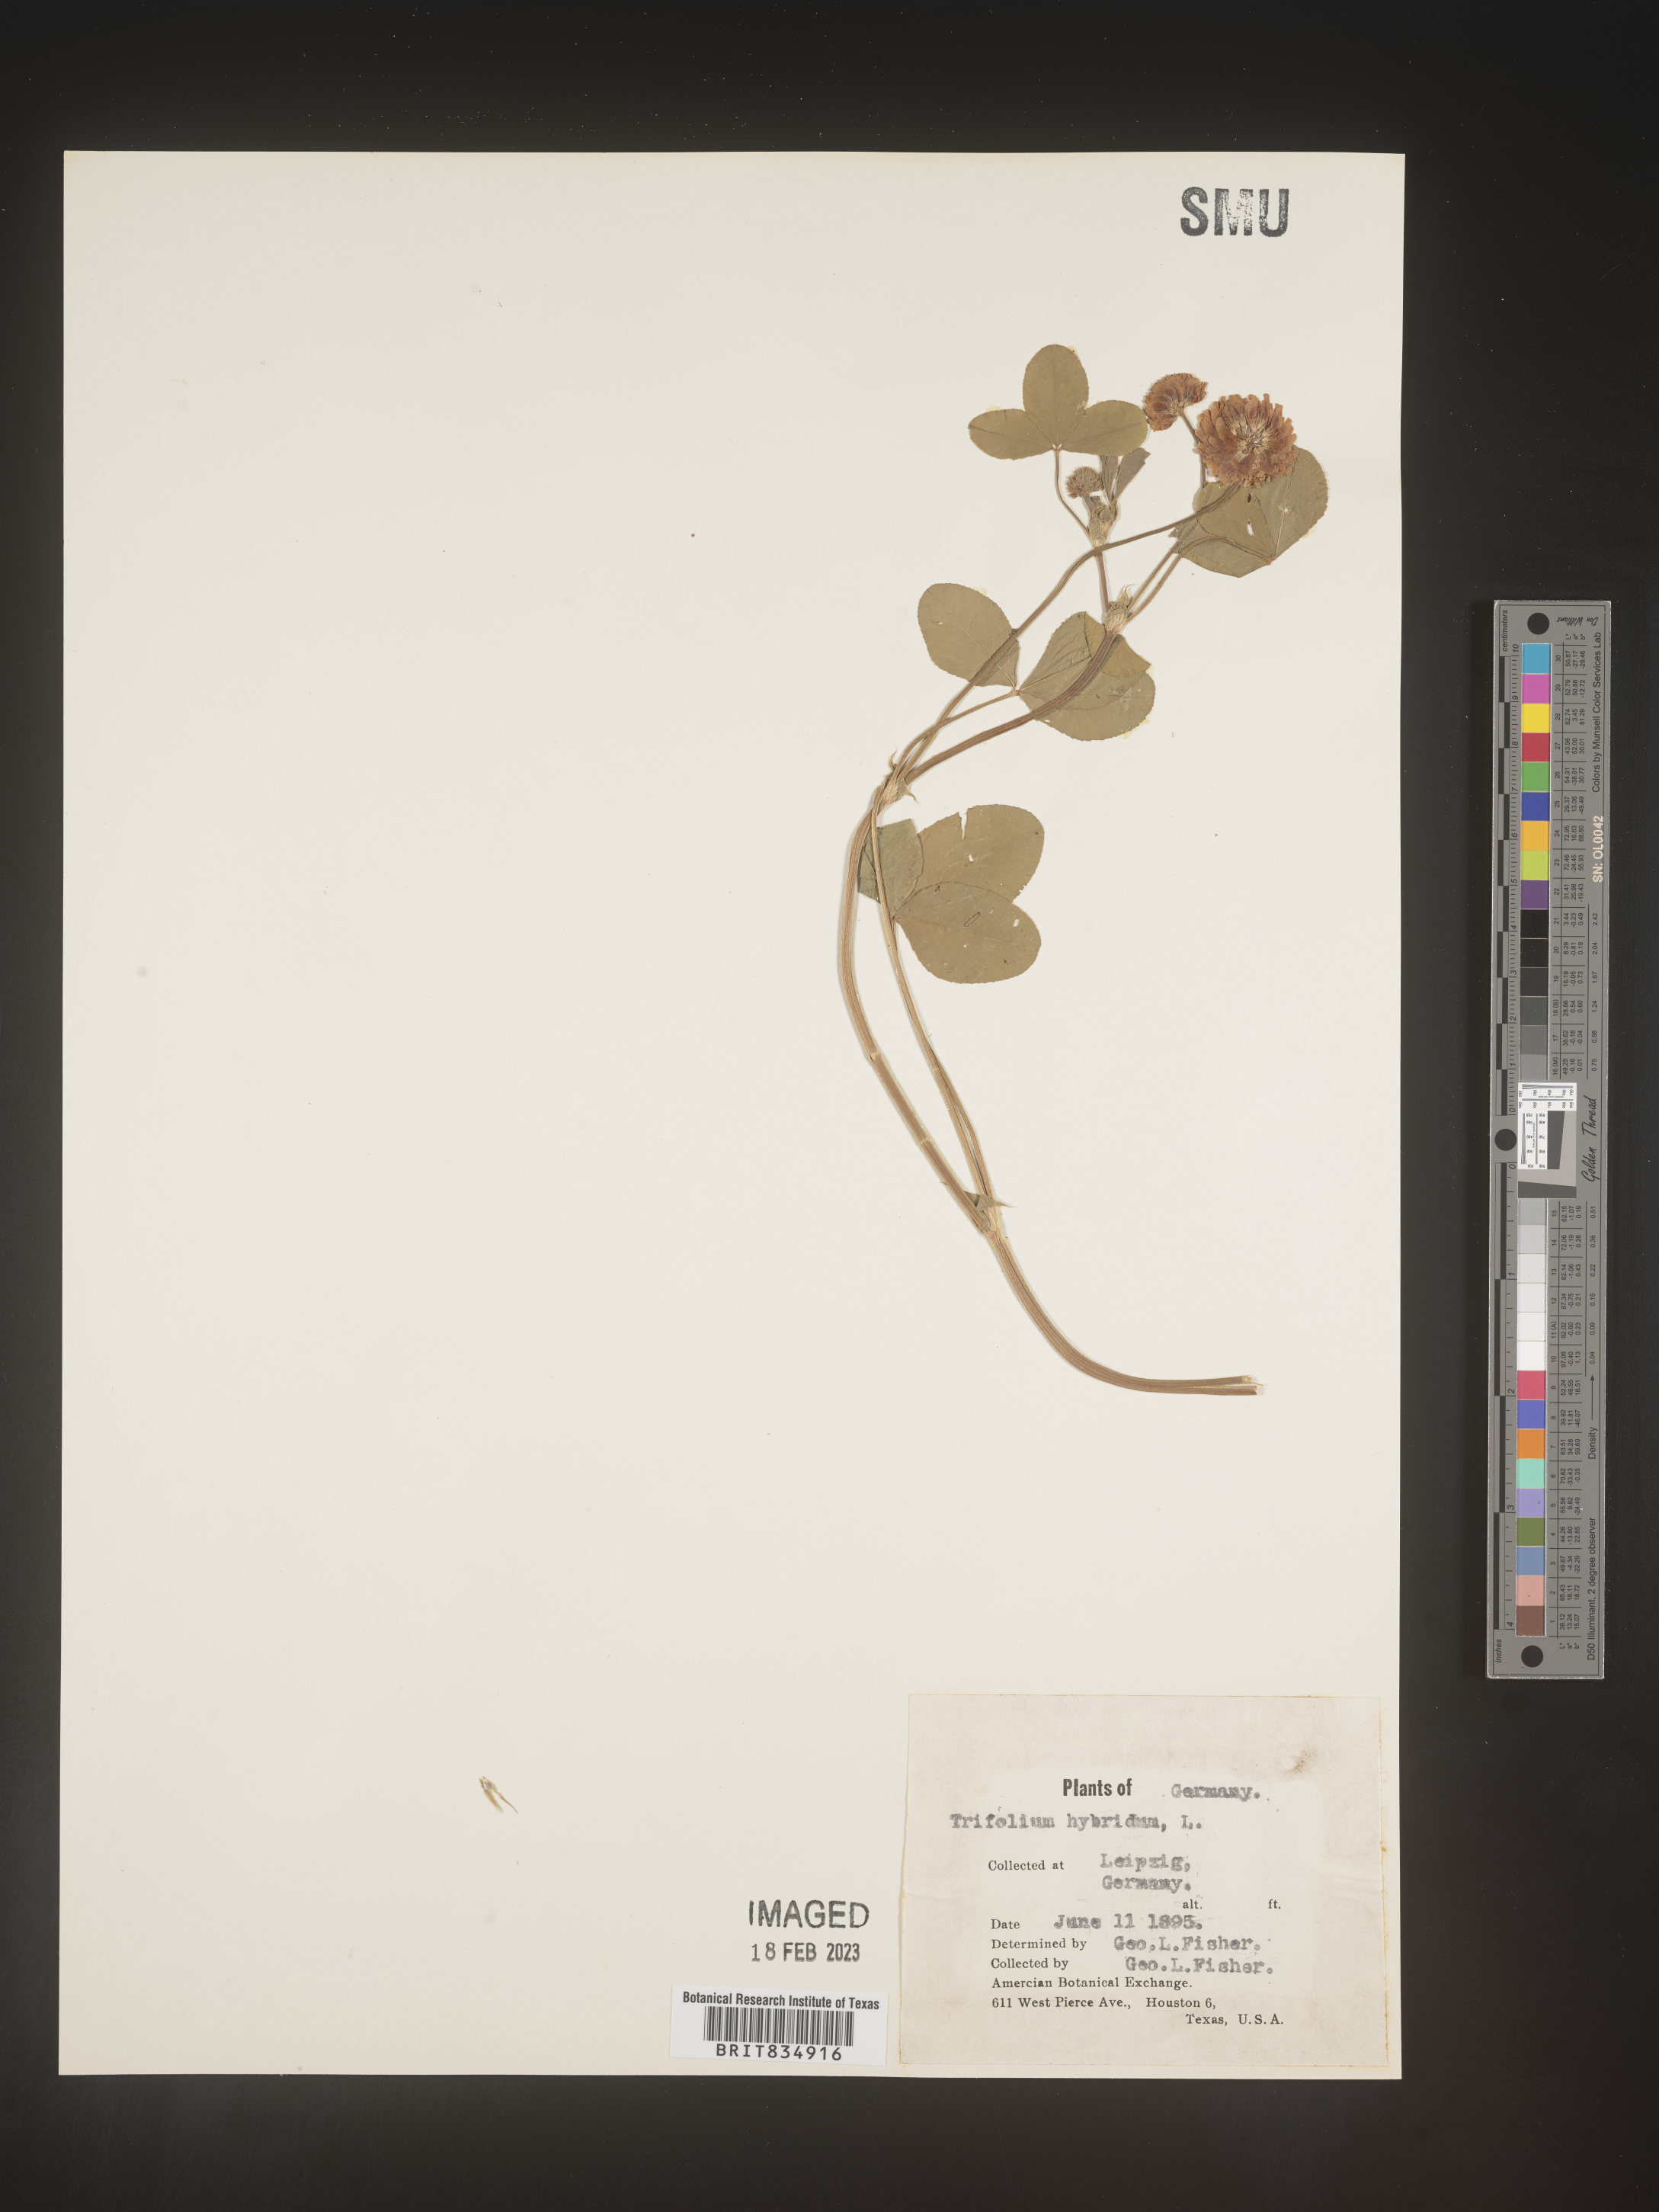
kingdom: Plantae
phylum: Tracheophyta
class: Magnoliopsida
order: Fabales
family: Fabaceae
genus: Trifolium
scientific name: Trifolium
